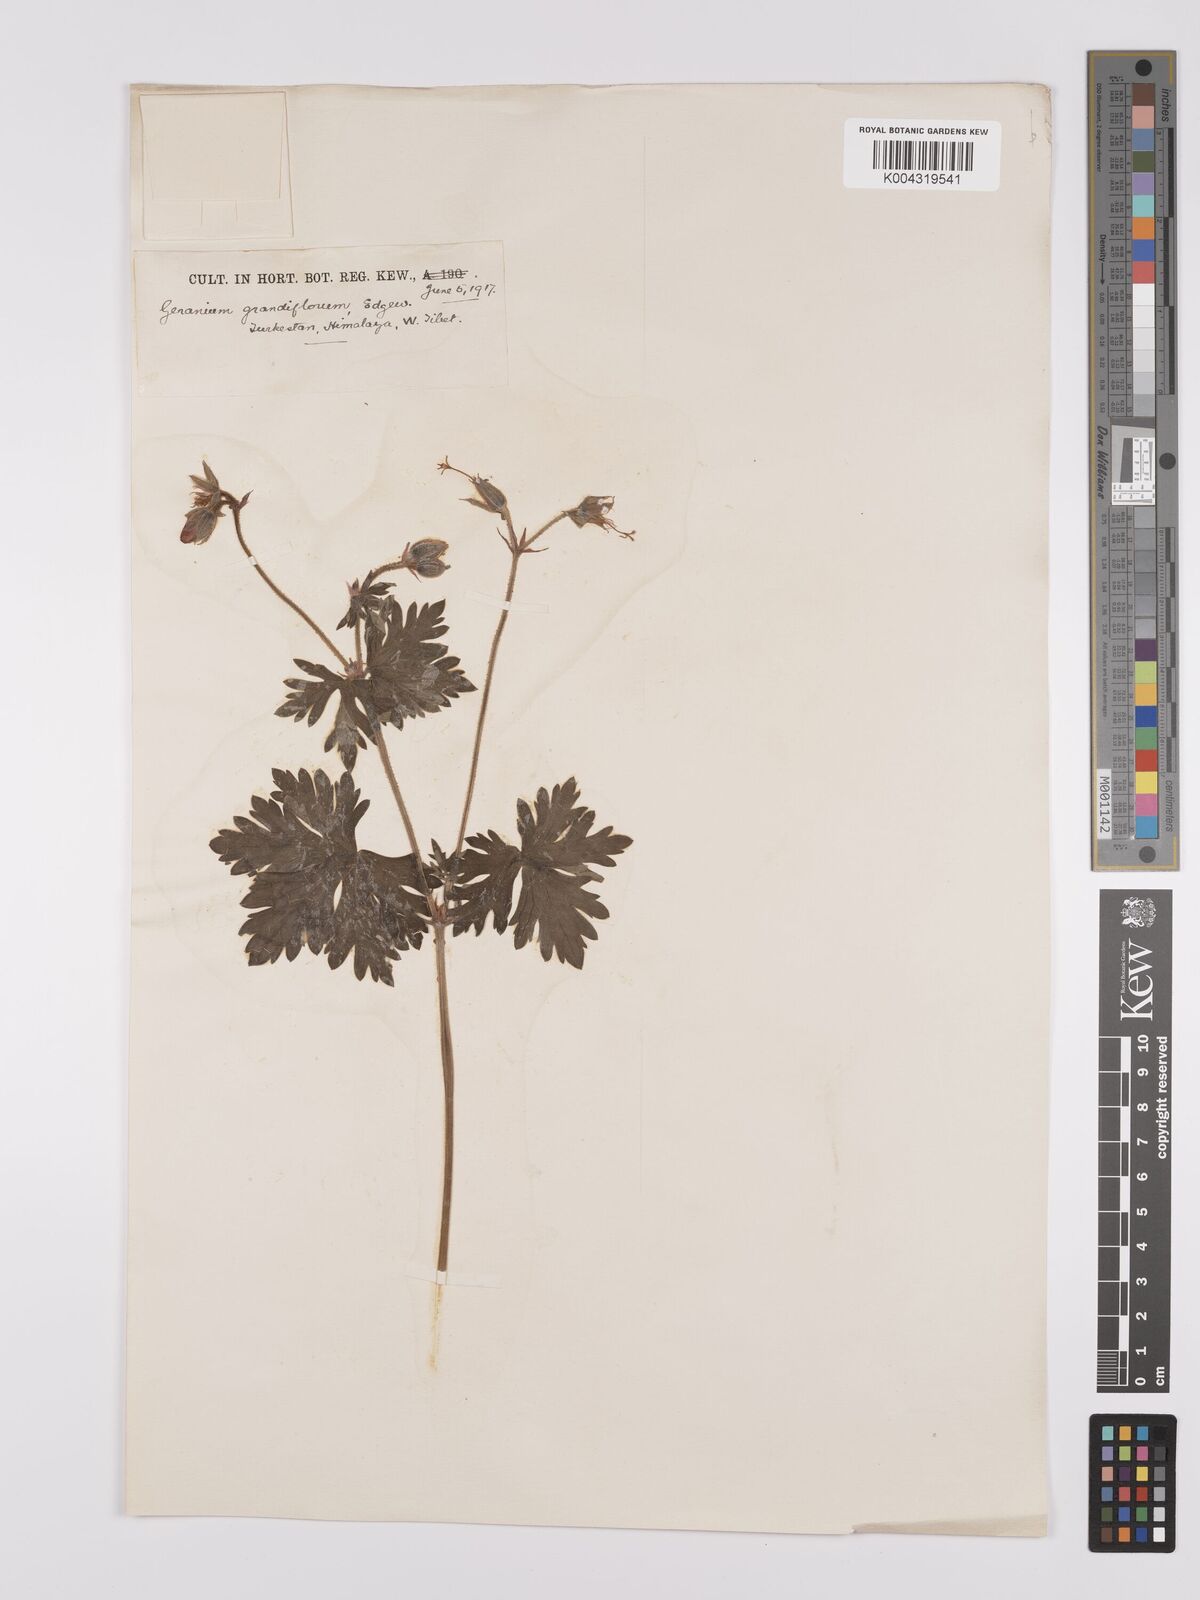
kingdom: Plantae
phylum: Tracheophyta
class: Magnoliopsida
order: Geraniales
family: Geraniaceae
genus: Geranium
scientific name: Geranium himalayense
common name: Himalayan crane's-bill
